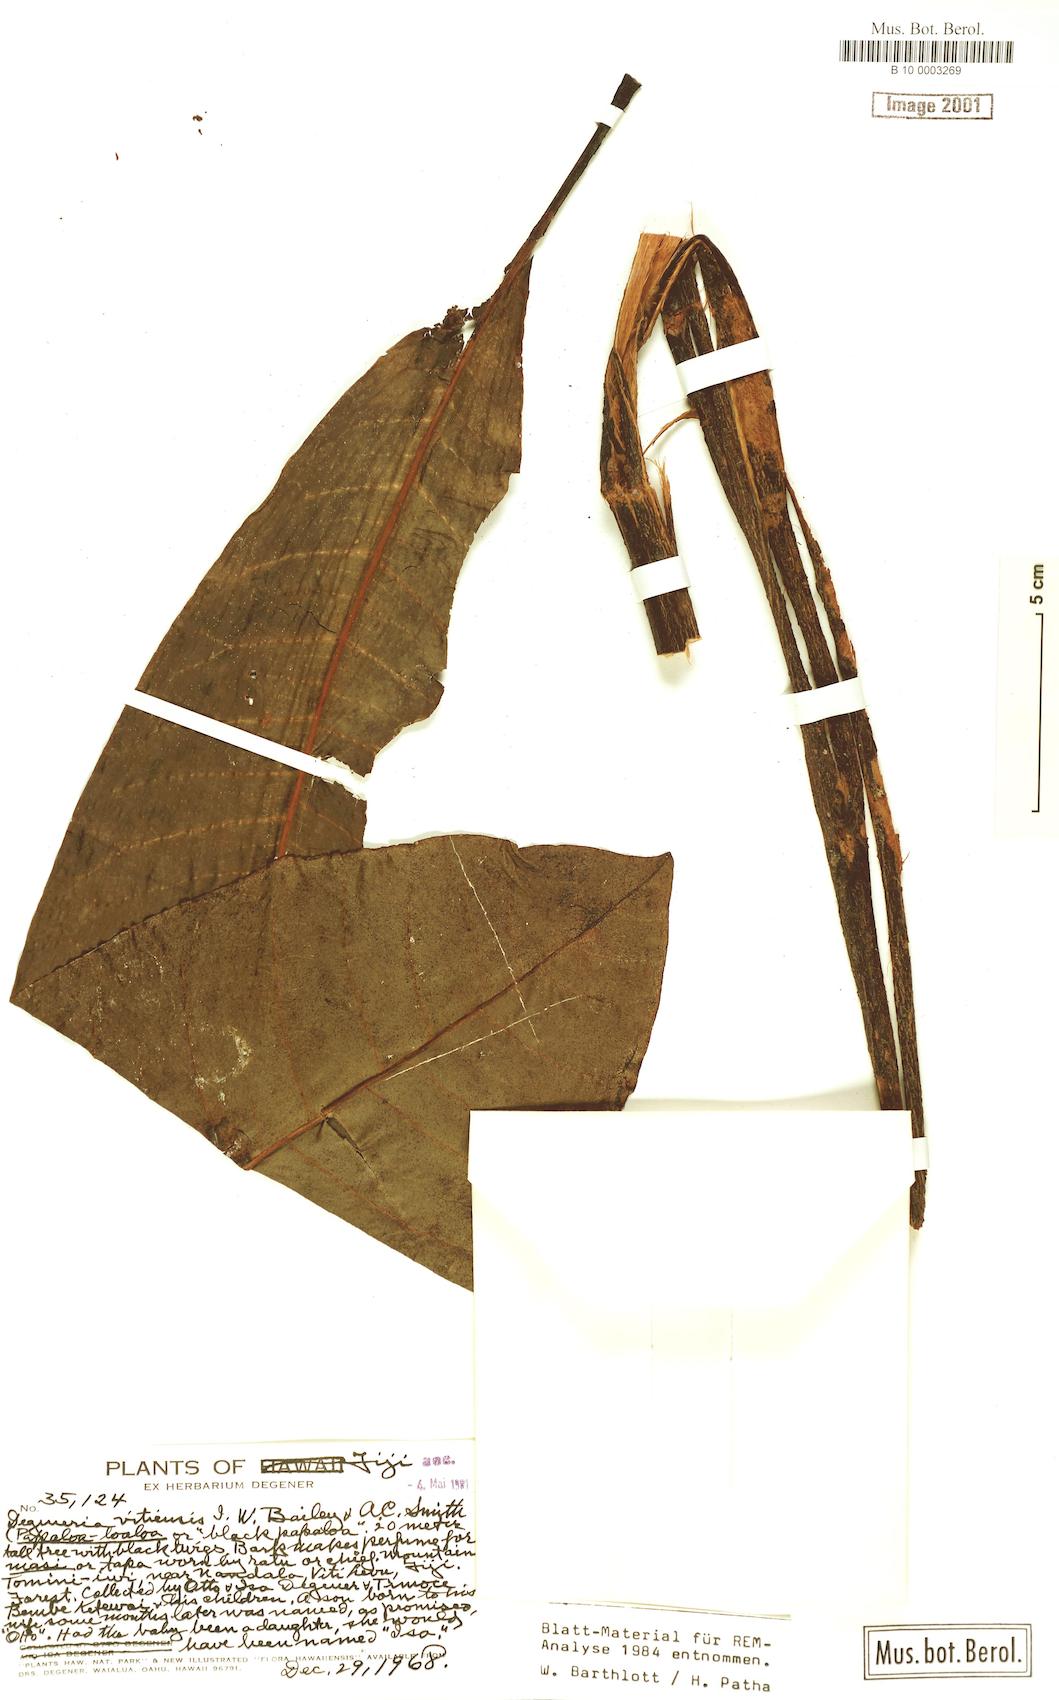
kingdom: Plantae
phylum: Tracheophyta
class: Magnoliopsida
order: Magnoliales
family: Degeneriaceae
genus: Degeneria
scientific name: Degeneria vitiensis
